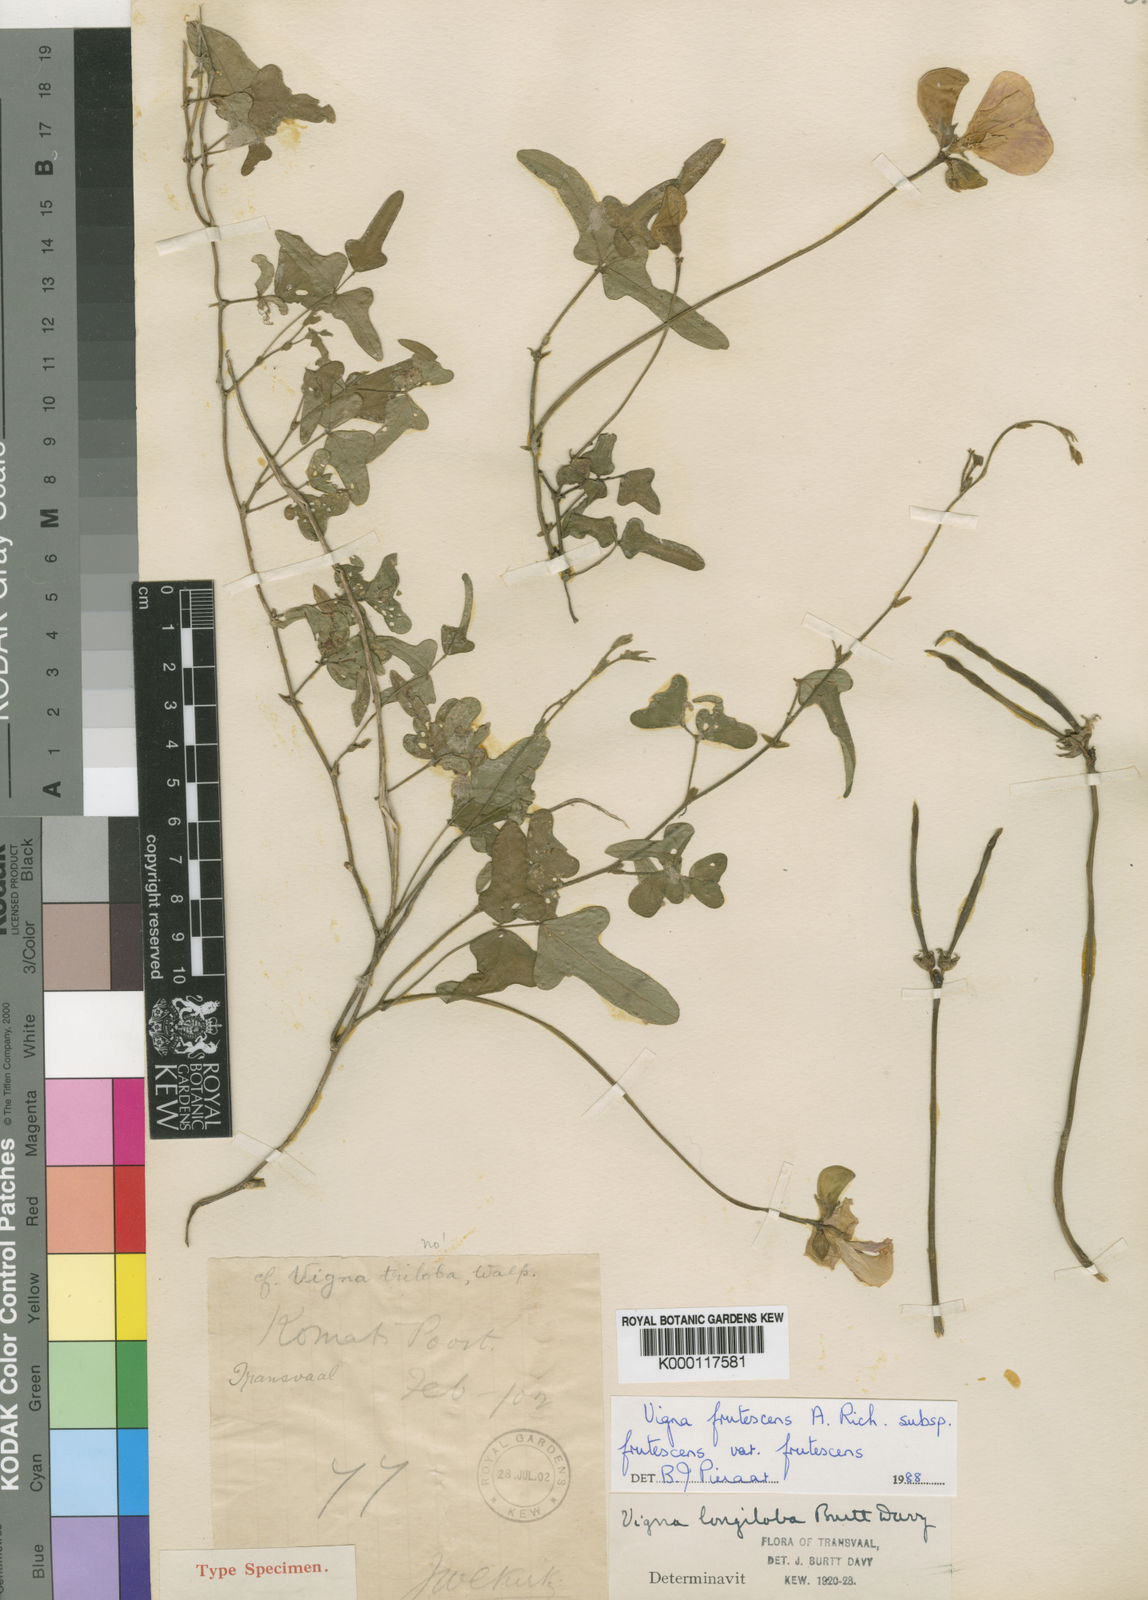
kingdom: Plantae
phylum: Tracheophyta
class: Magnoliopsida
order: Fabales
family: Fabaceae
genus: Vigna
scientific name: Vigna frutescens
